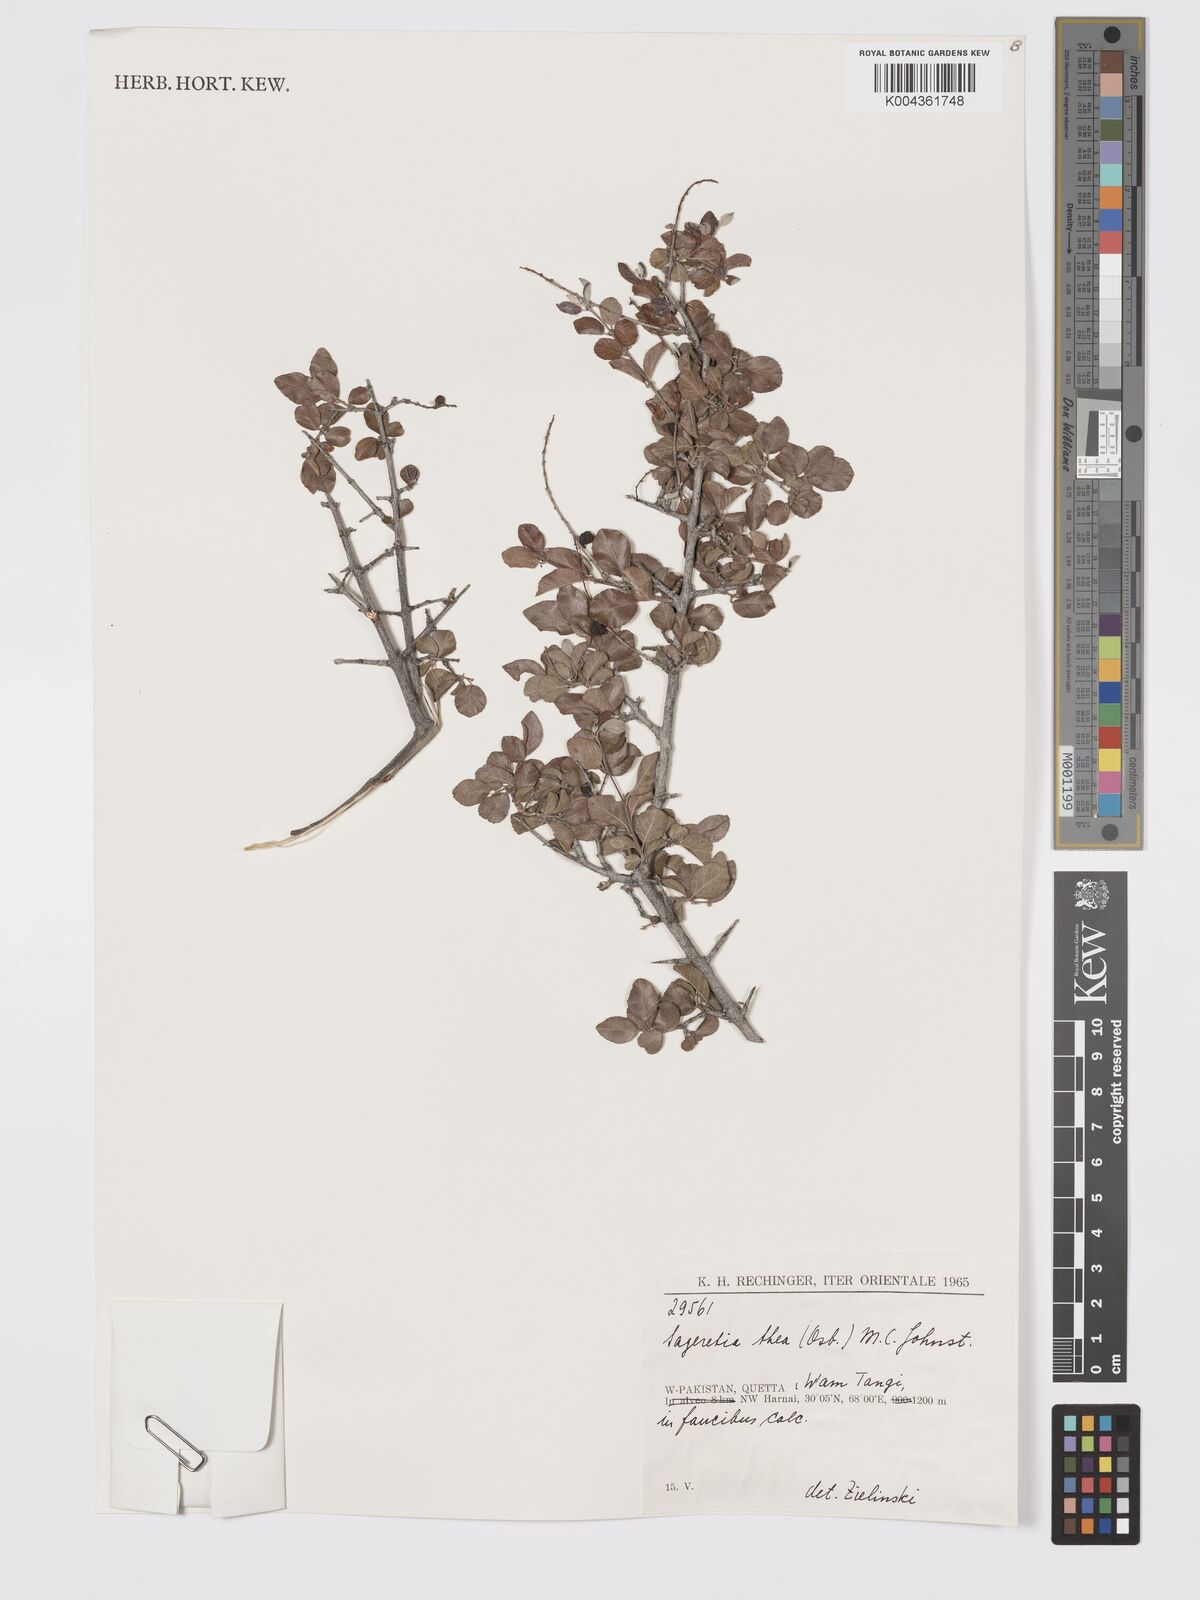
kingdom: Plantae
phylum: Tracheophyta
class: Magnoliopsida
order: Rosales
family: Rhamnaceae
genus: Sageretia
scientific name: Sageretia thea
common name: Pauper's-tea
